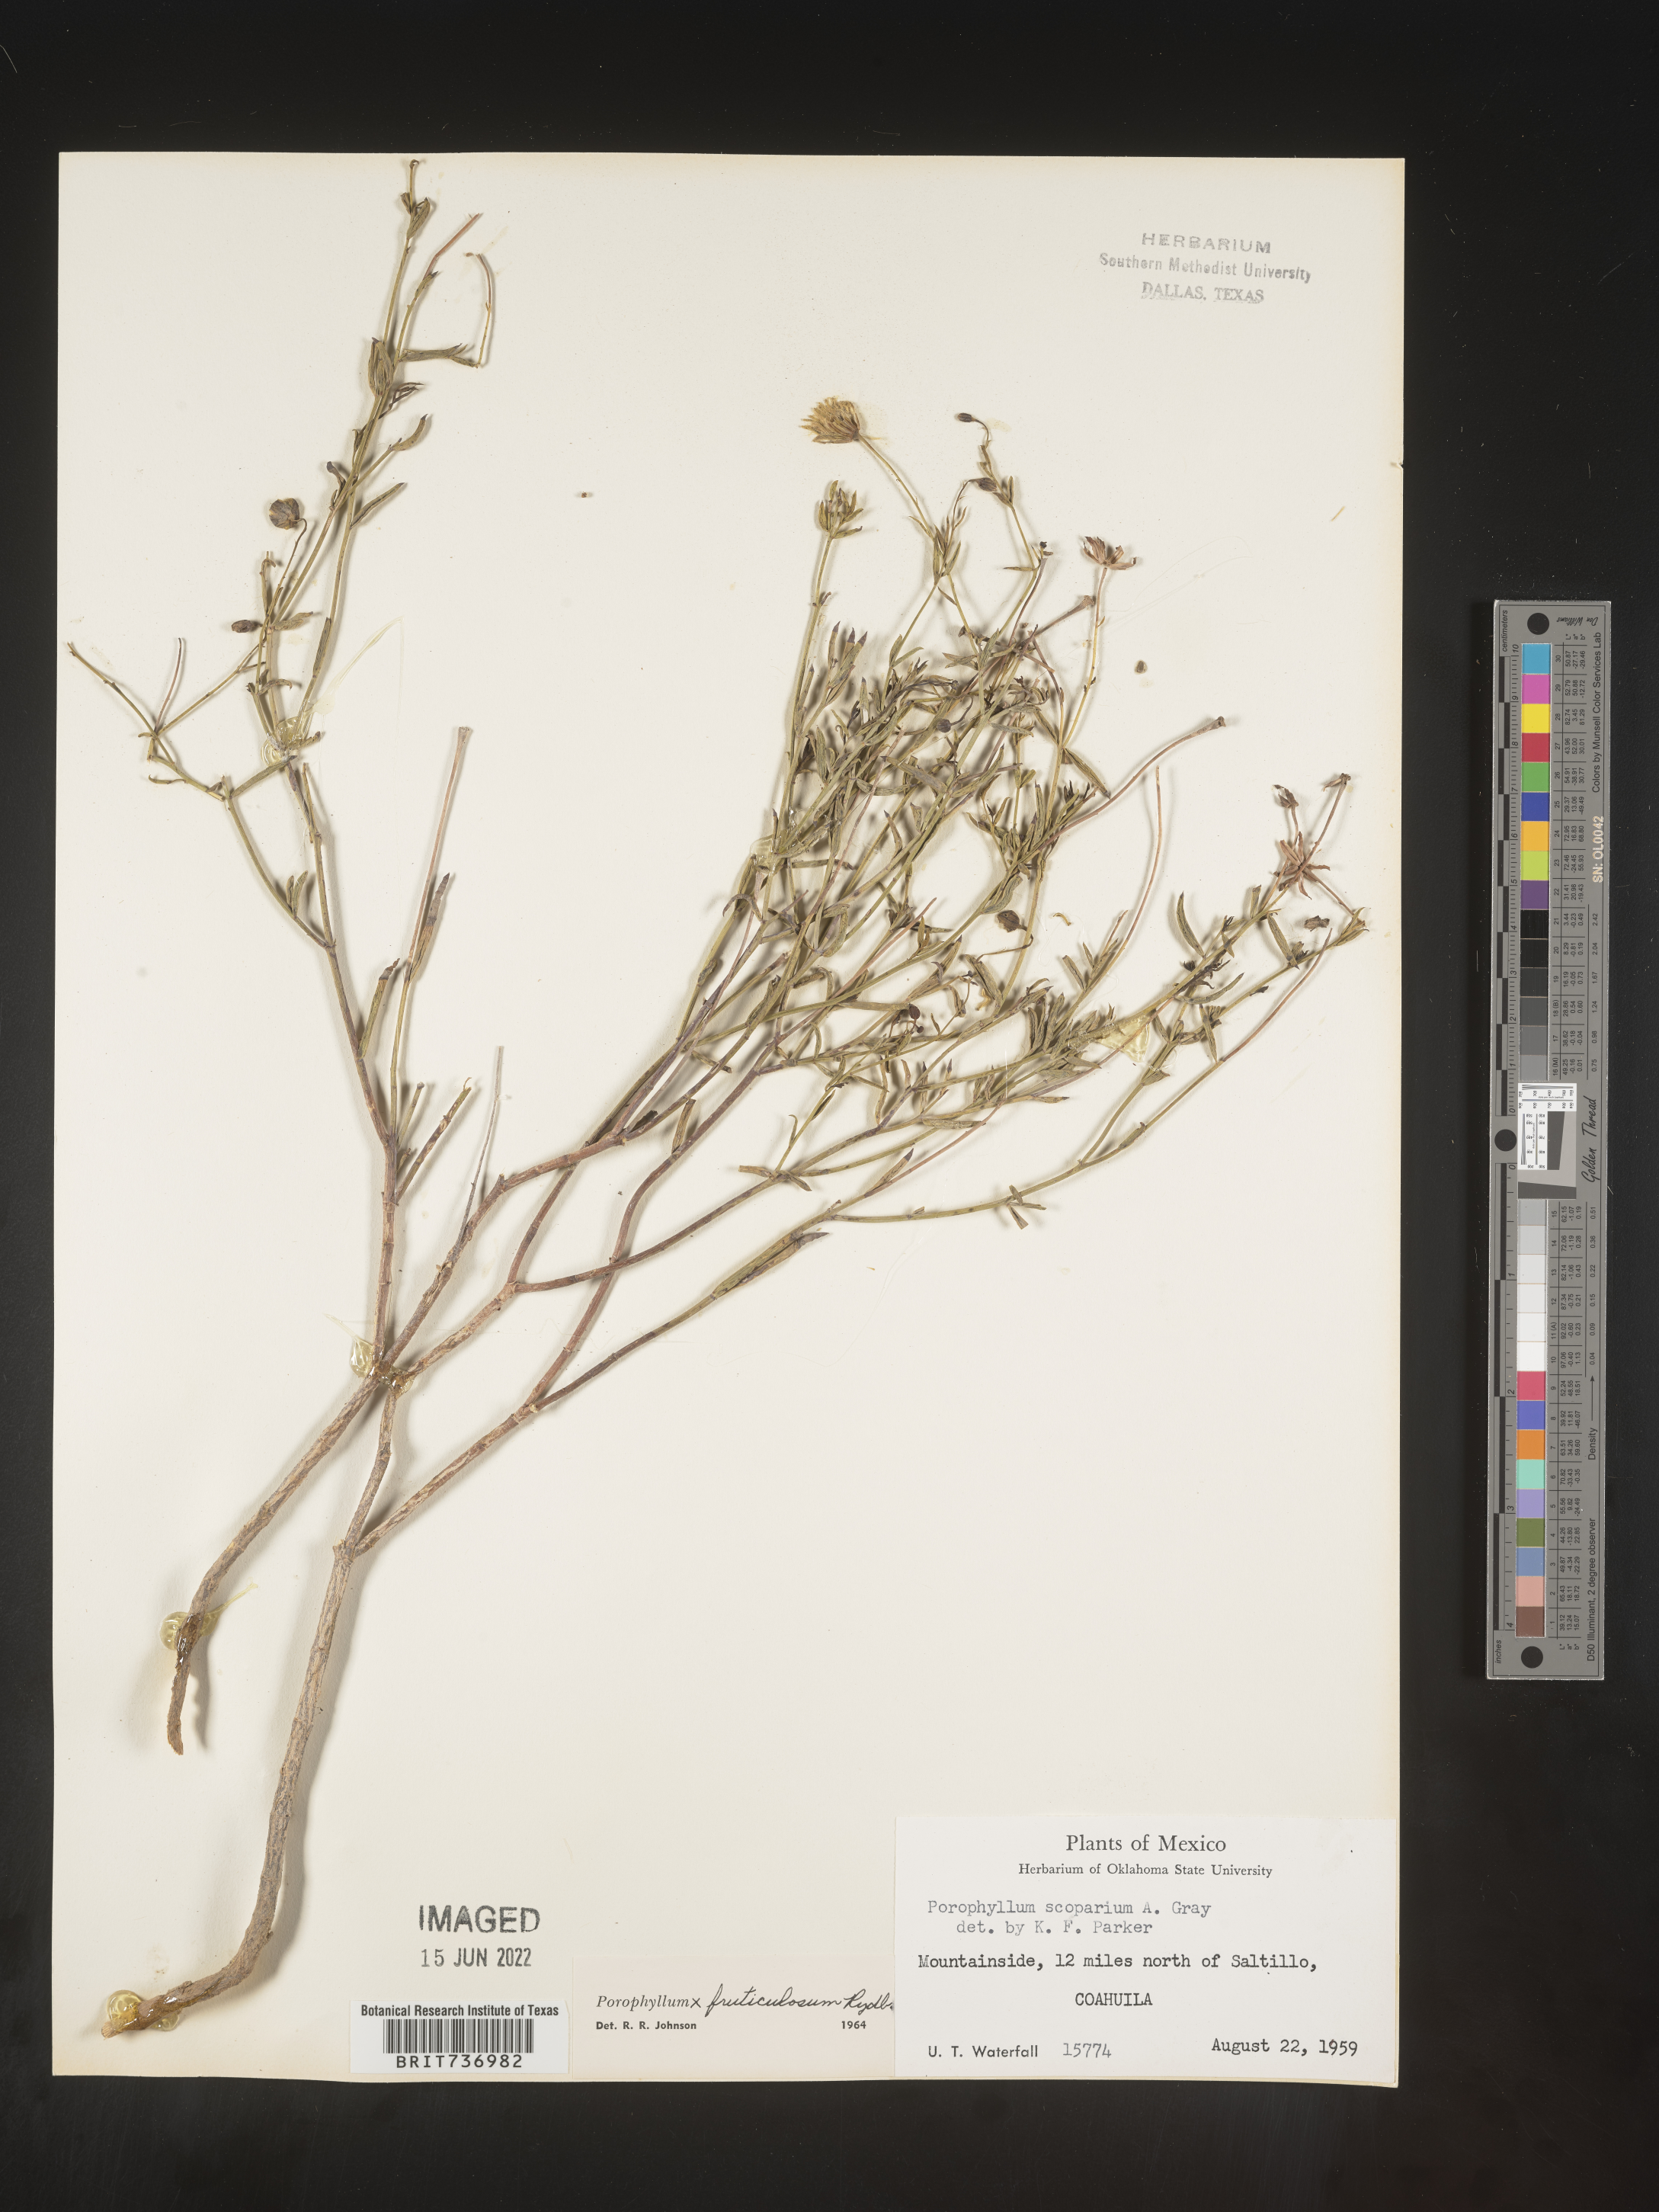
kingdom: Plantae
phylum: Tracheophyta
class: Magnoliopsida
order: Asterales
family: Asteraceae
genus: Porophyllum
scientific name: Porophyllum
